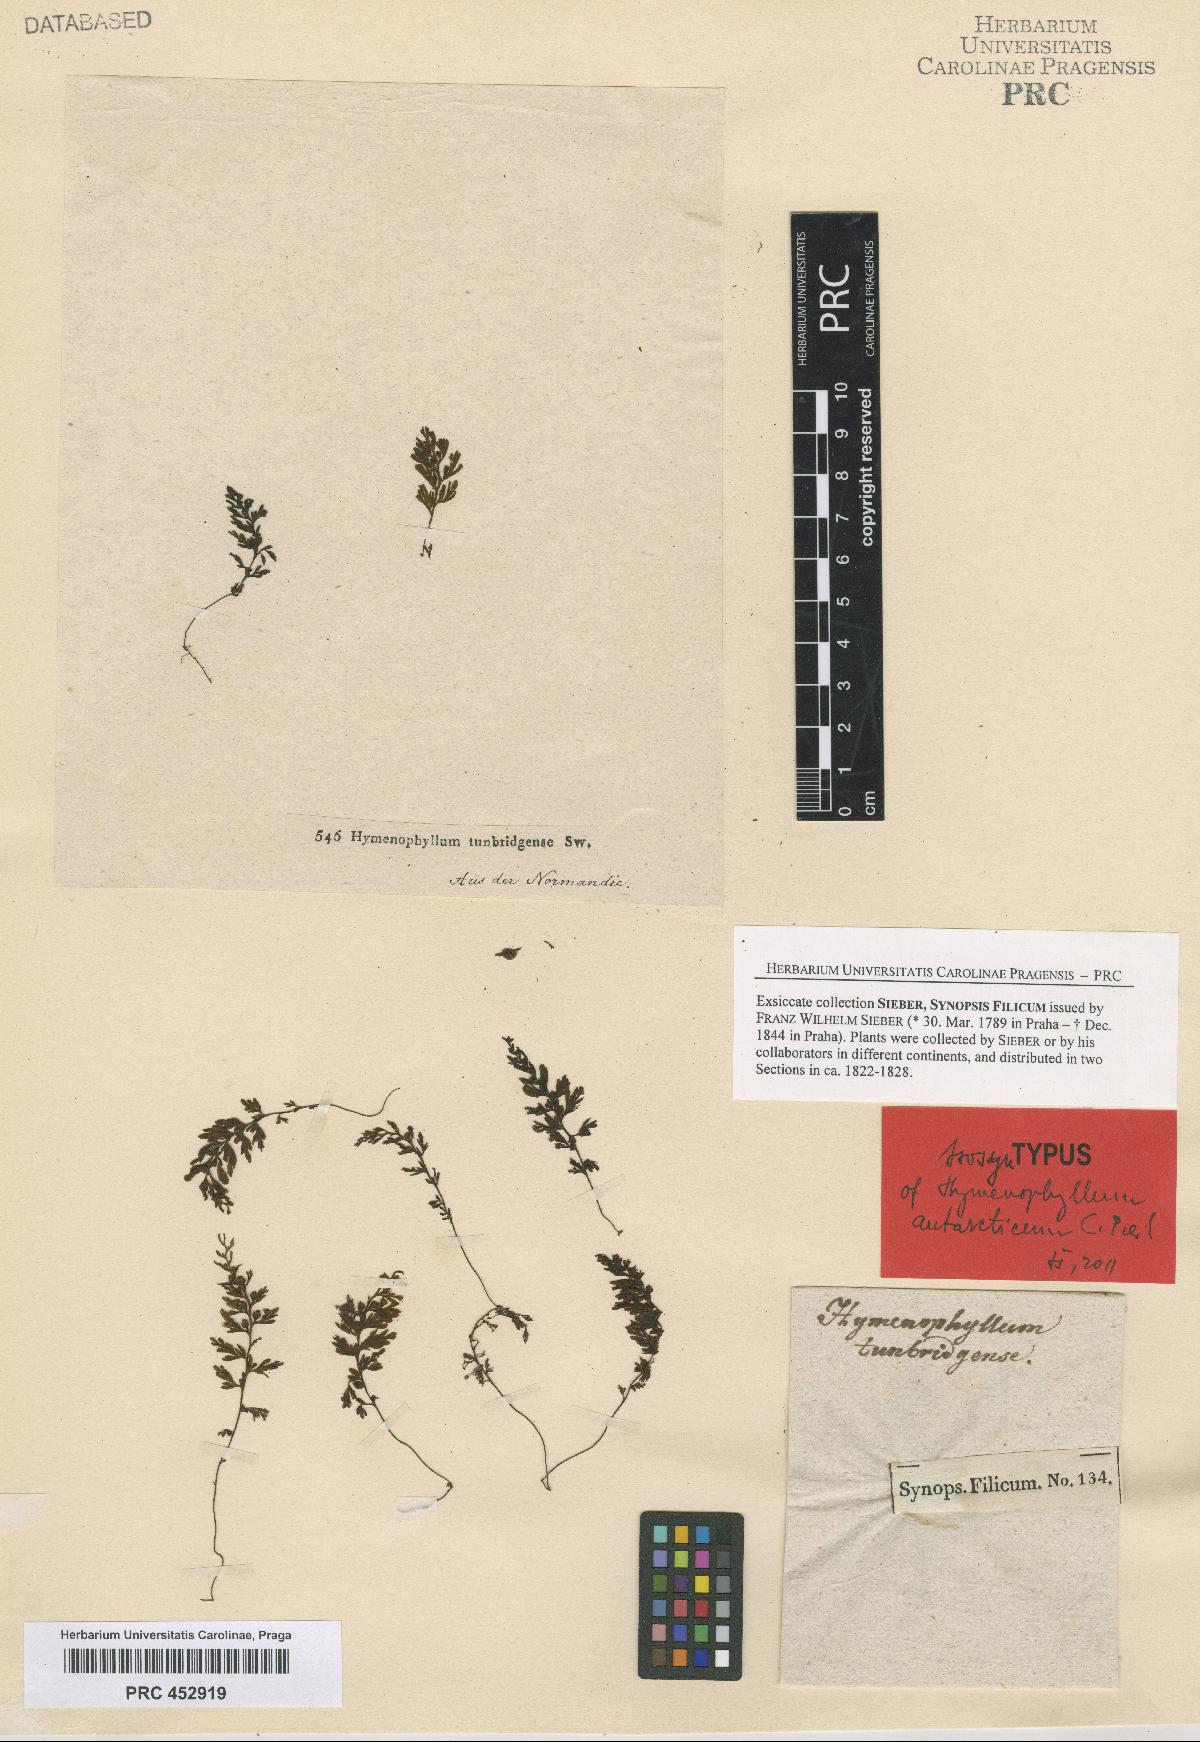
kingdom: Plantae
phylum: Tracheophyta
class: Polypodiopsida
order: Hymenophyllales
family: Hymenophyllaceae
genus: Hymenophyllum
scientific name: Hymenophyllum cupressiforme
